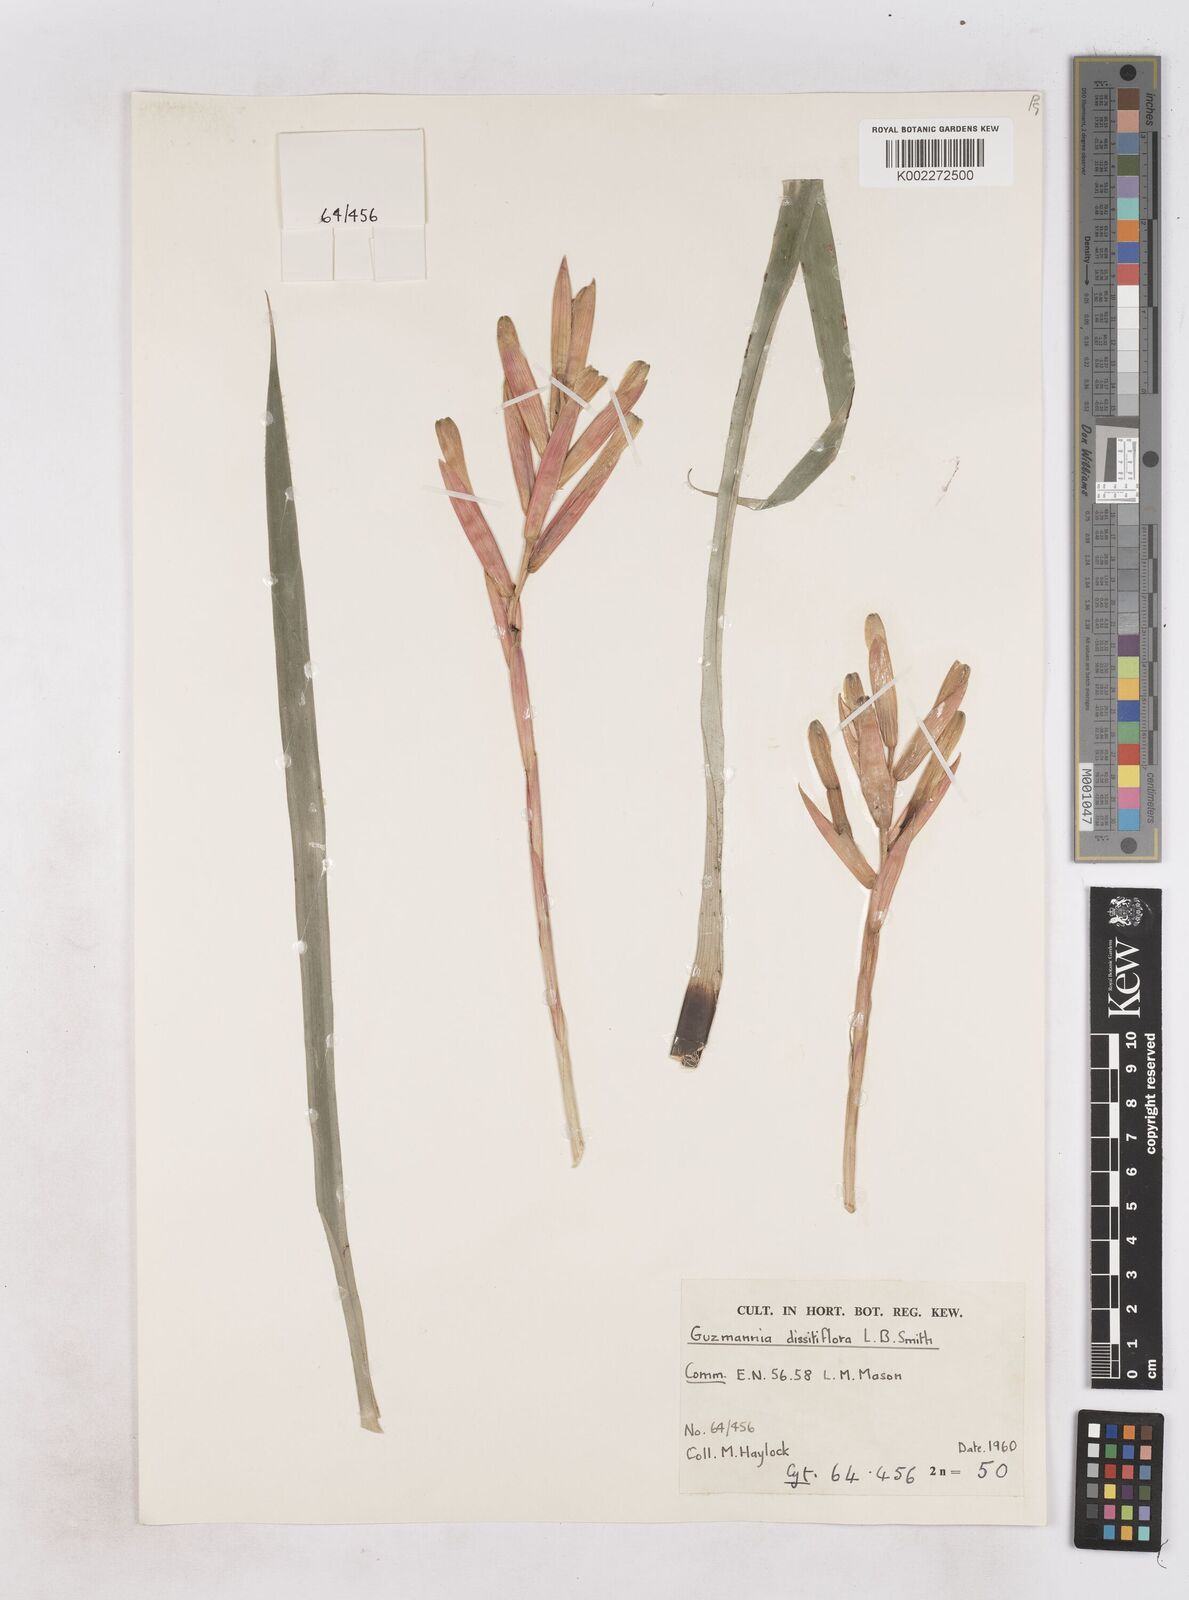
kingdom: Plantae
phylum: Tracheophyta
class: Liliopsida
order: Poales
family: Bromeliaceae
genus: Guzmania
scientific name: Guzmania dissitiflora
